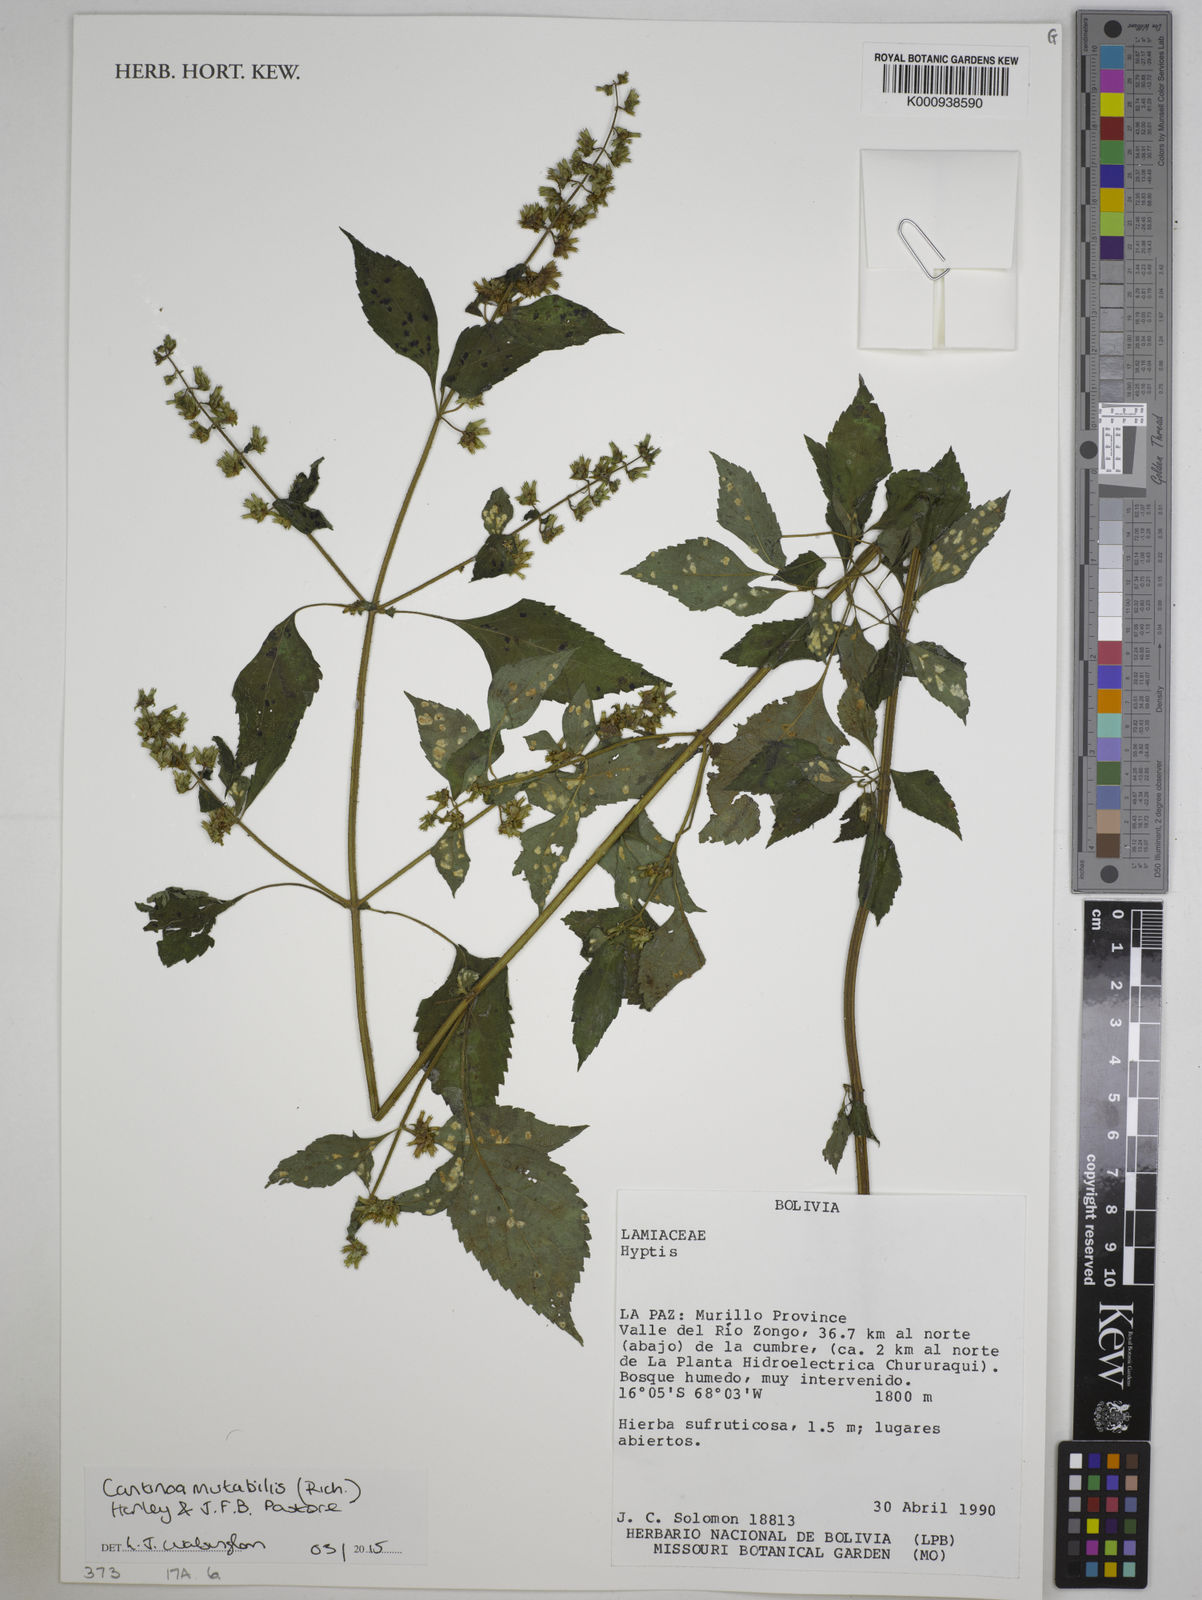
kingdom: Plantae
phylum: Tracheophyta
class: Magnoliopsida
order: Lamiales
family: Lamiaceae
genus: Cantinoa
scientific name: Cantinoa mutabilis
